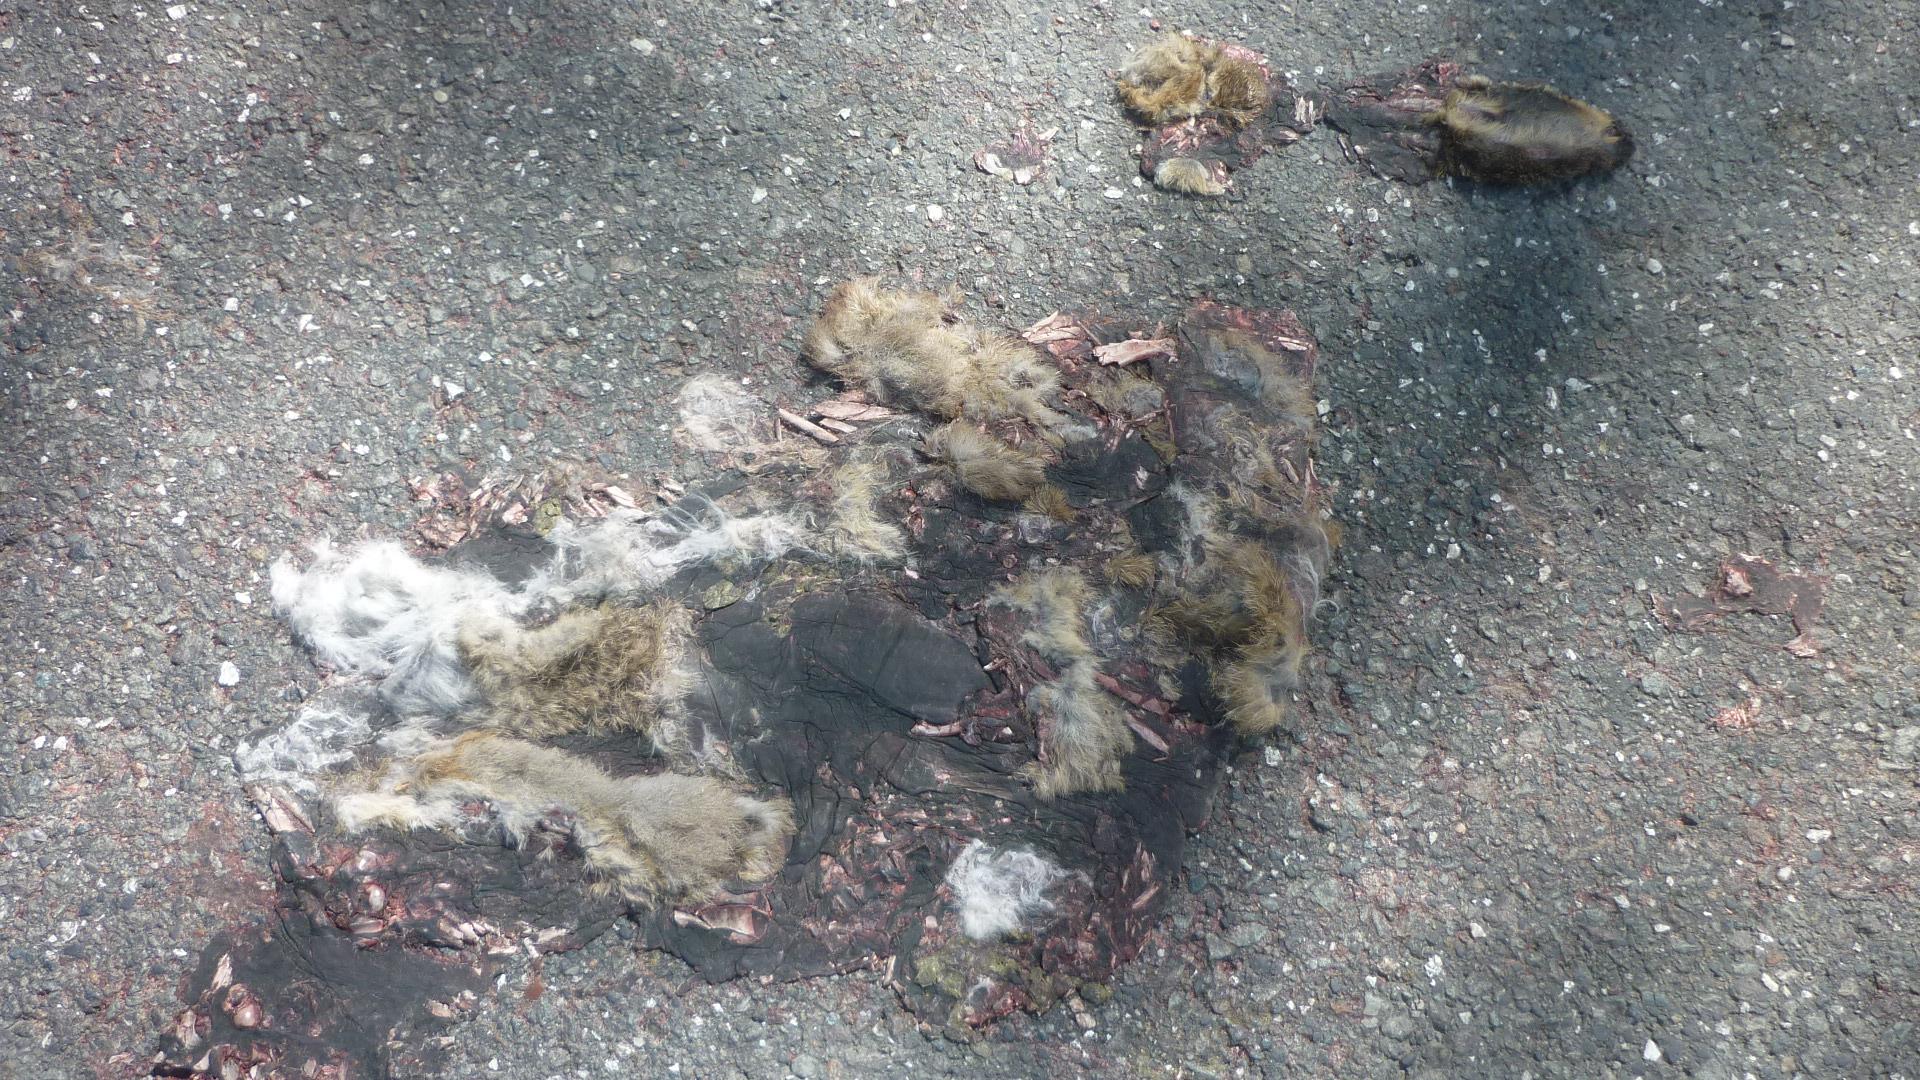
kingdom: Animalia
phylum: Chordata
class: Mammalia
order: Lagomorpha
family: Leporidae
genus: Lepus
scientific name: Lepus europaeus
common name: European hare
